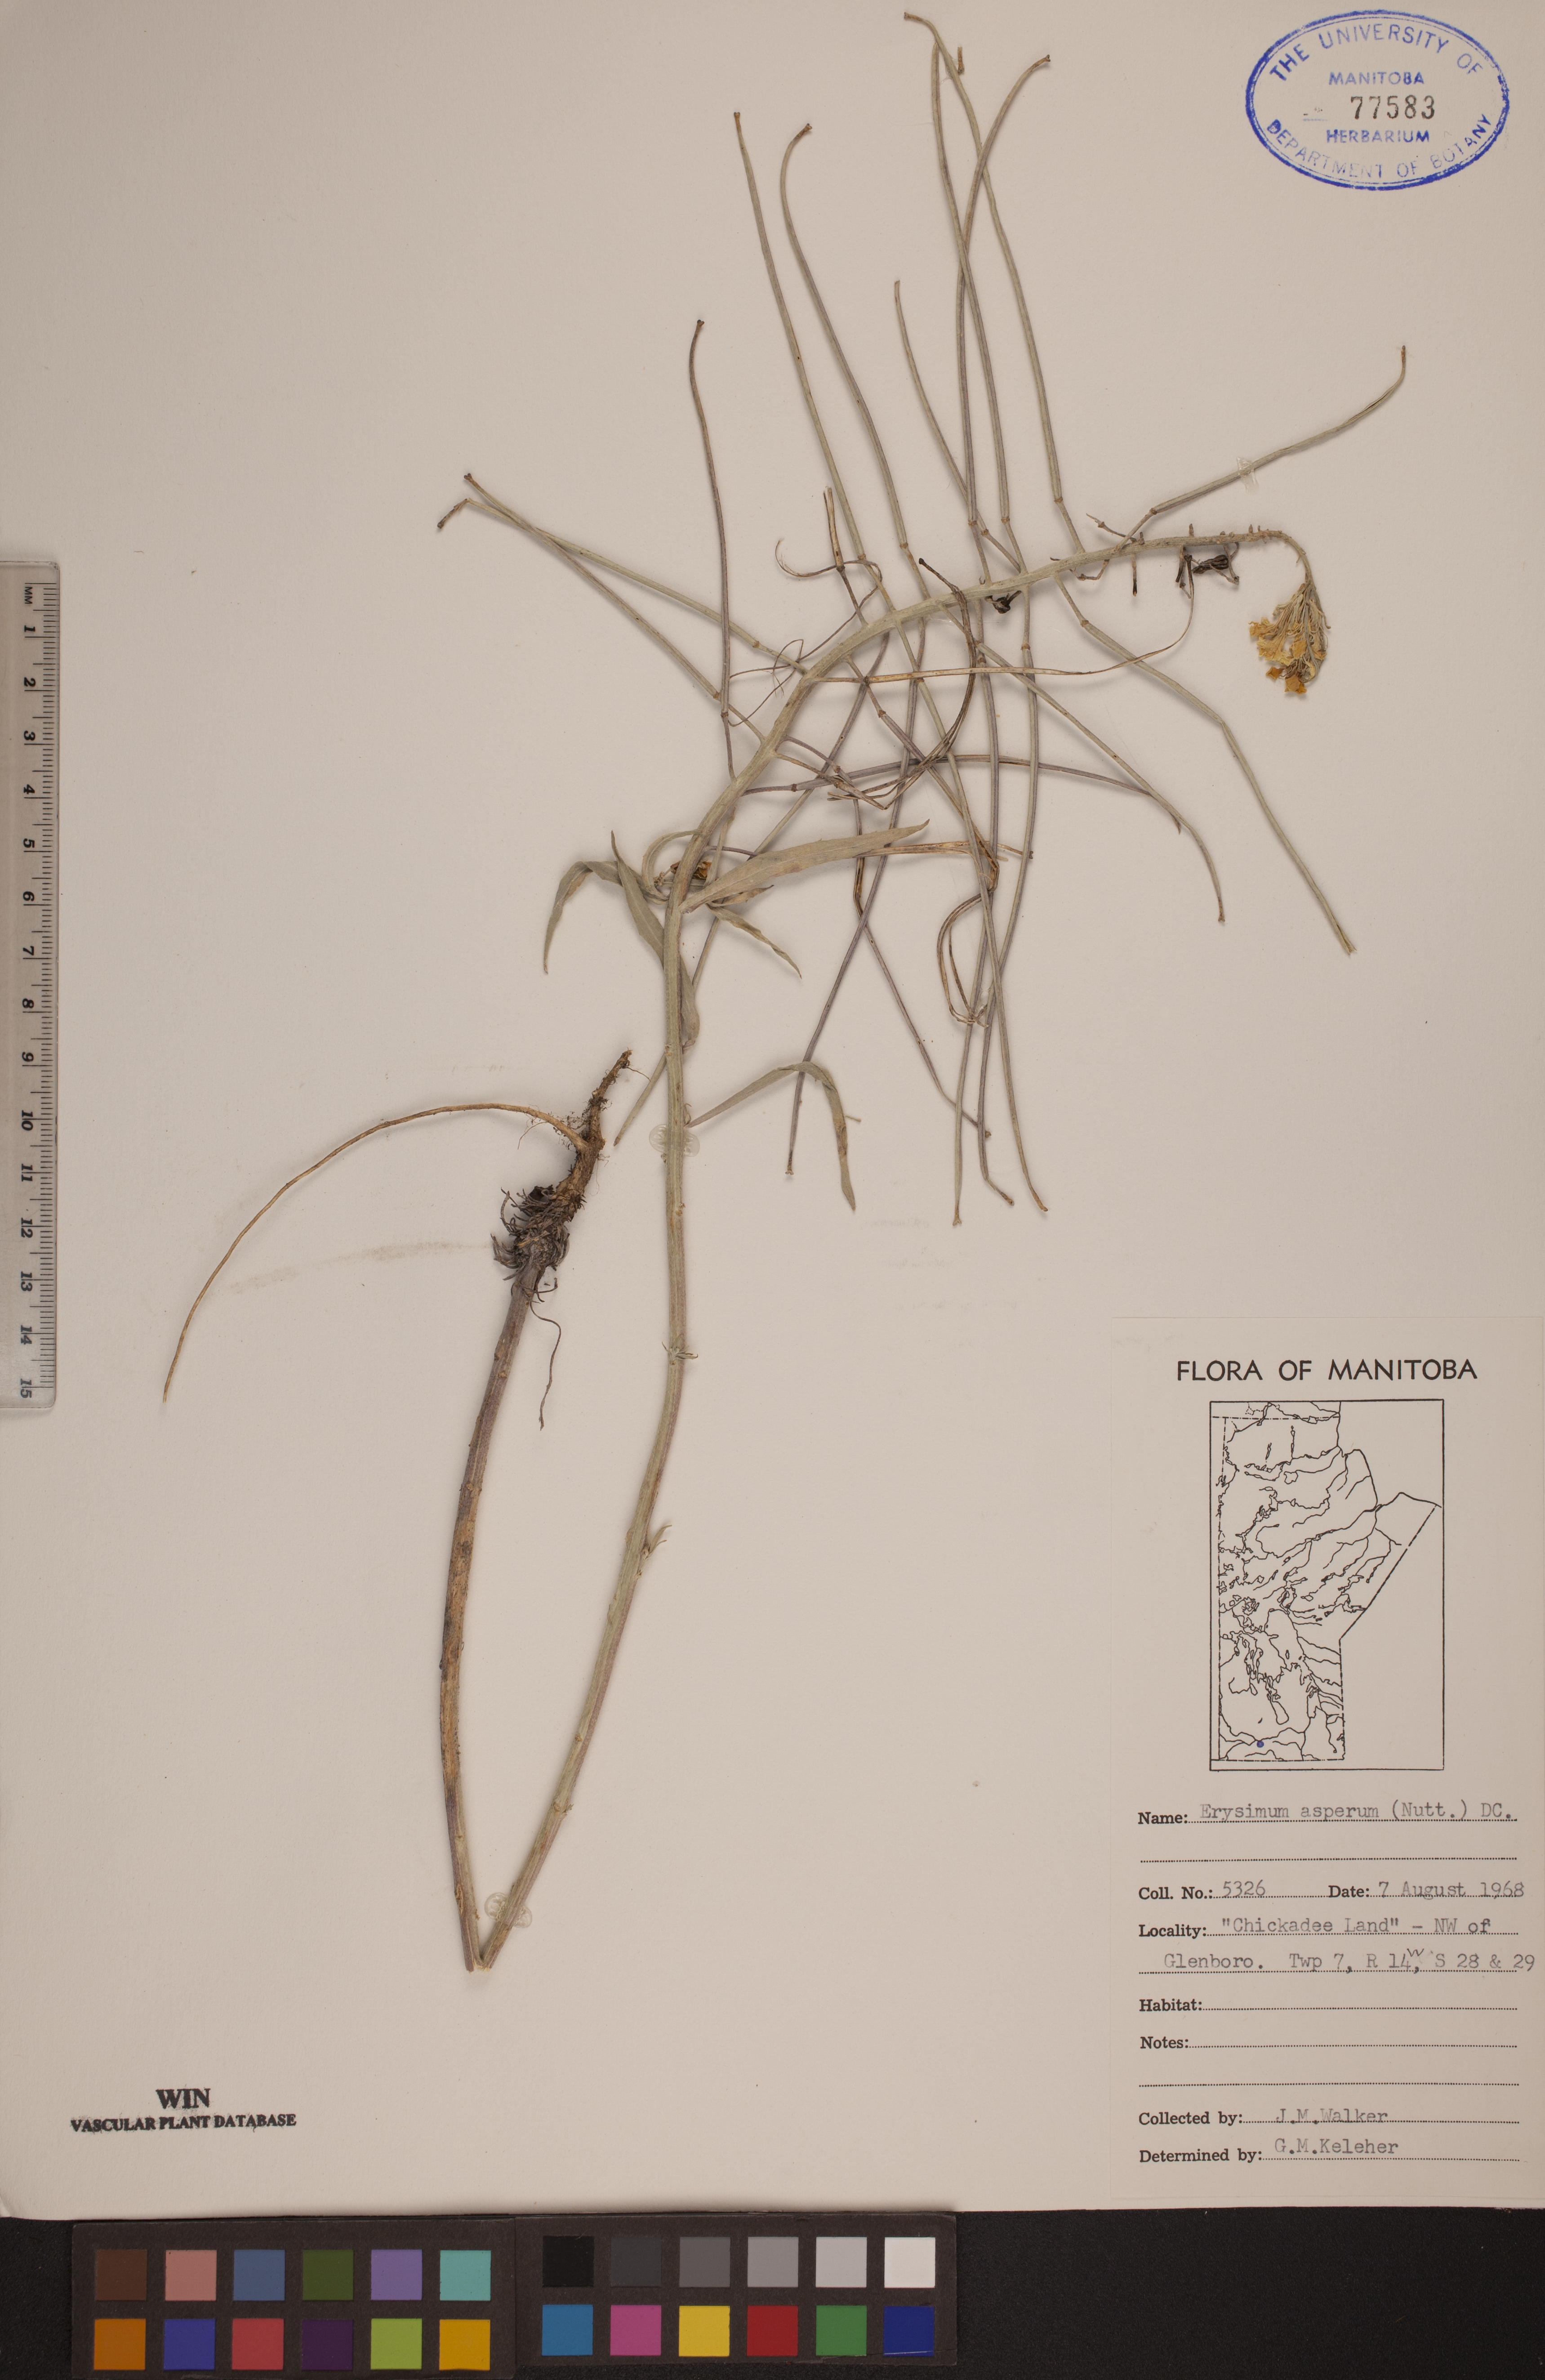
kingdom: Plantae
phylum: Tracheophyta
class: Magnoliopsida
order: Brassicales
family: Brassicaceae
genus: Erysimum
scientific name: Erysimum asperum
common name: Western wallflower
